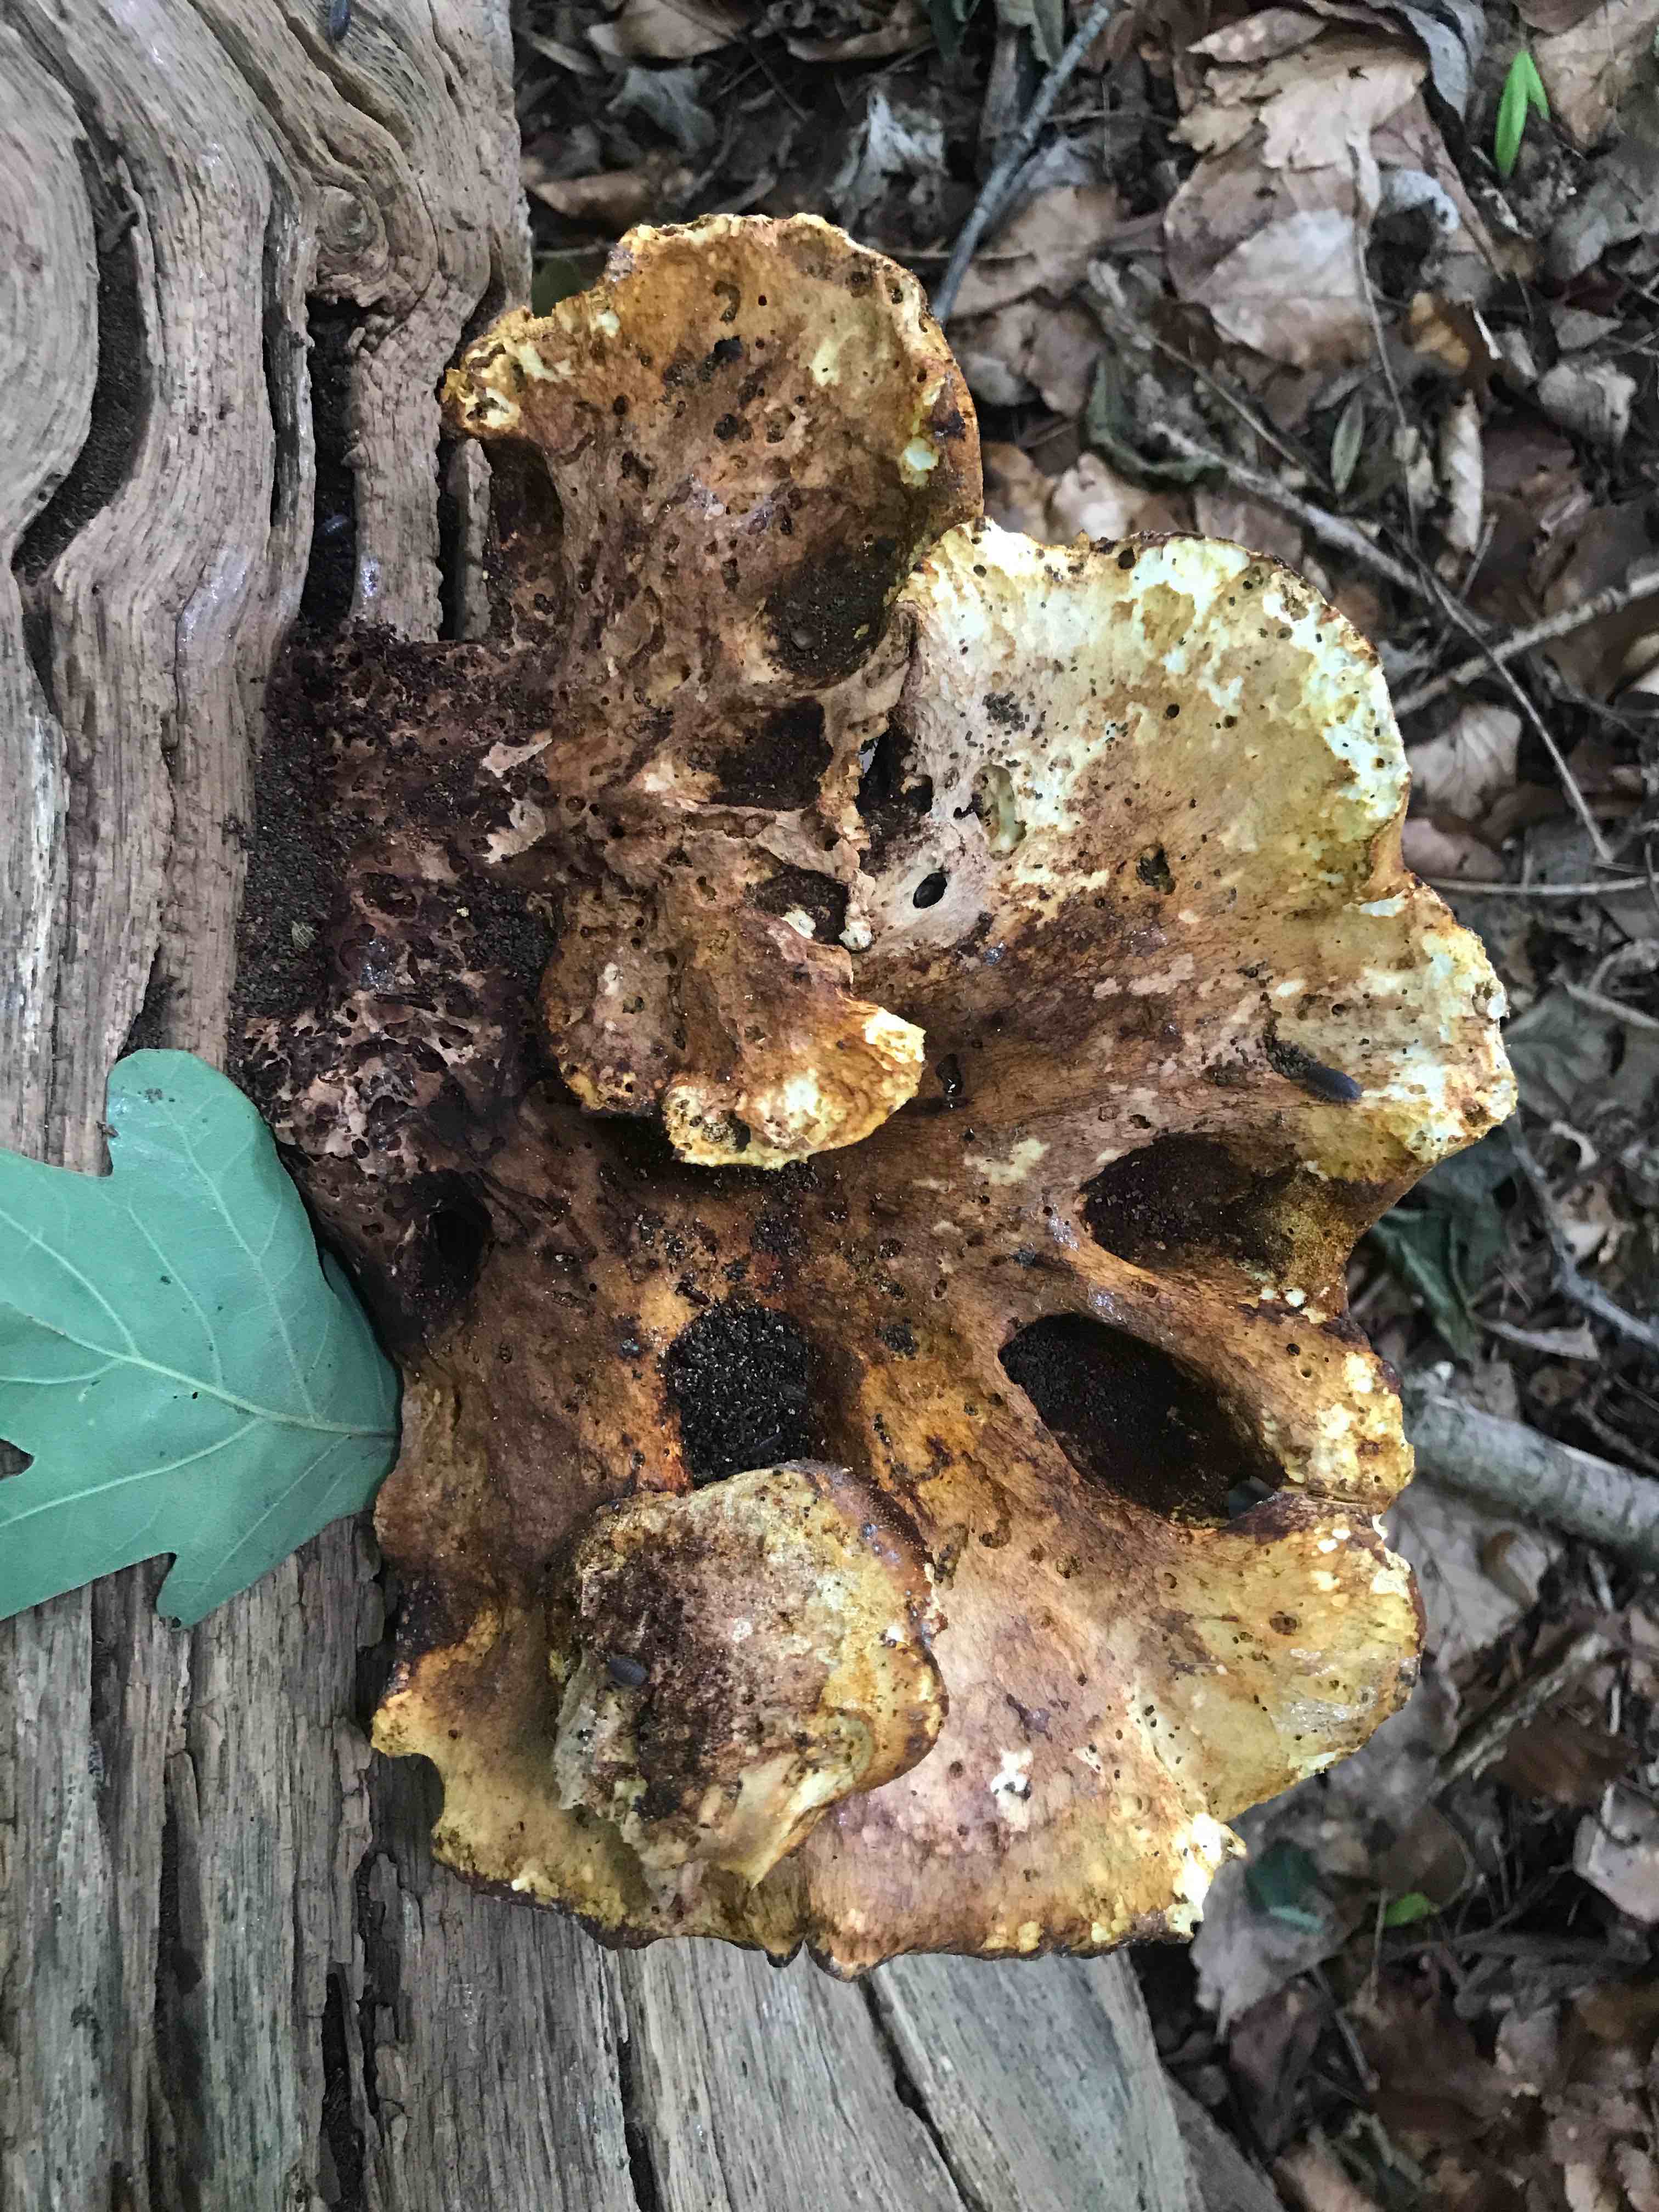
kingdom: Fungi
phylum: Basidiomycota
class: Agaricomycetes
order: Polyporales
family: Fomitopsidaceae
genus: Buglossoporus
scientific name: Buglossoporus quercinus
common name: egetunge
